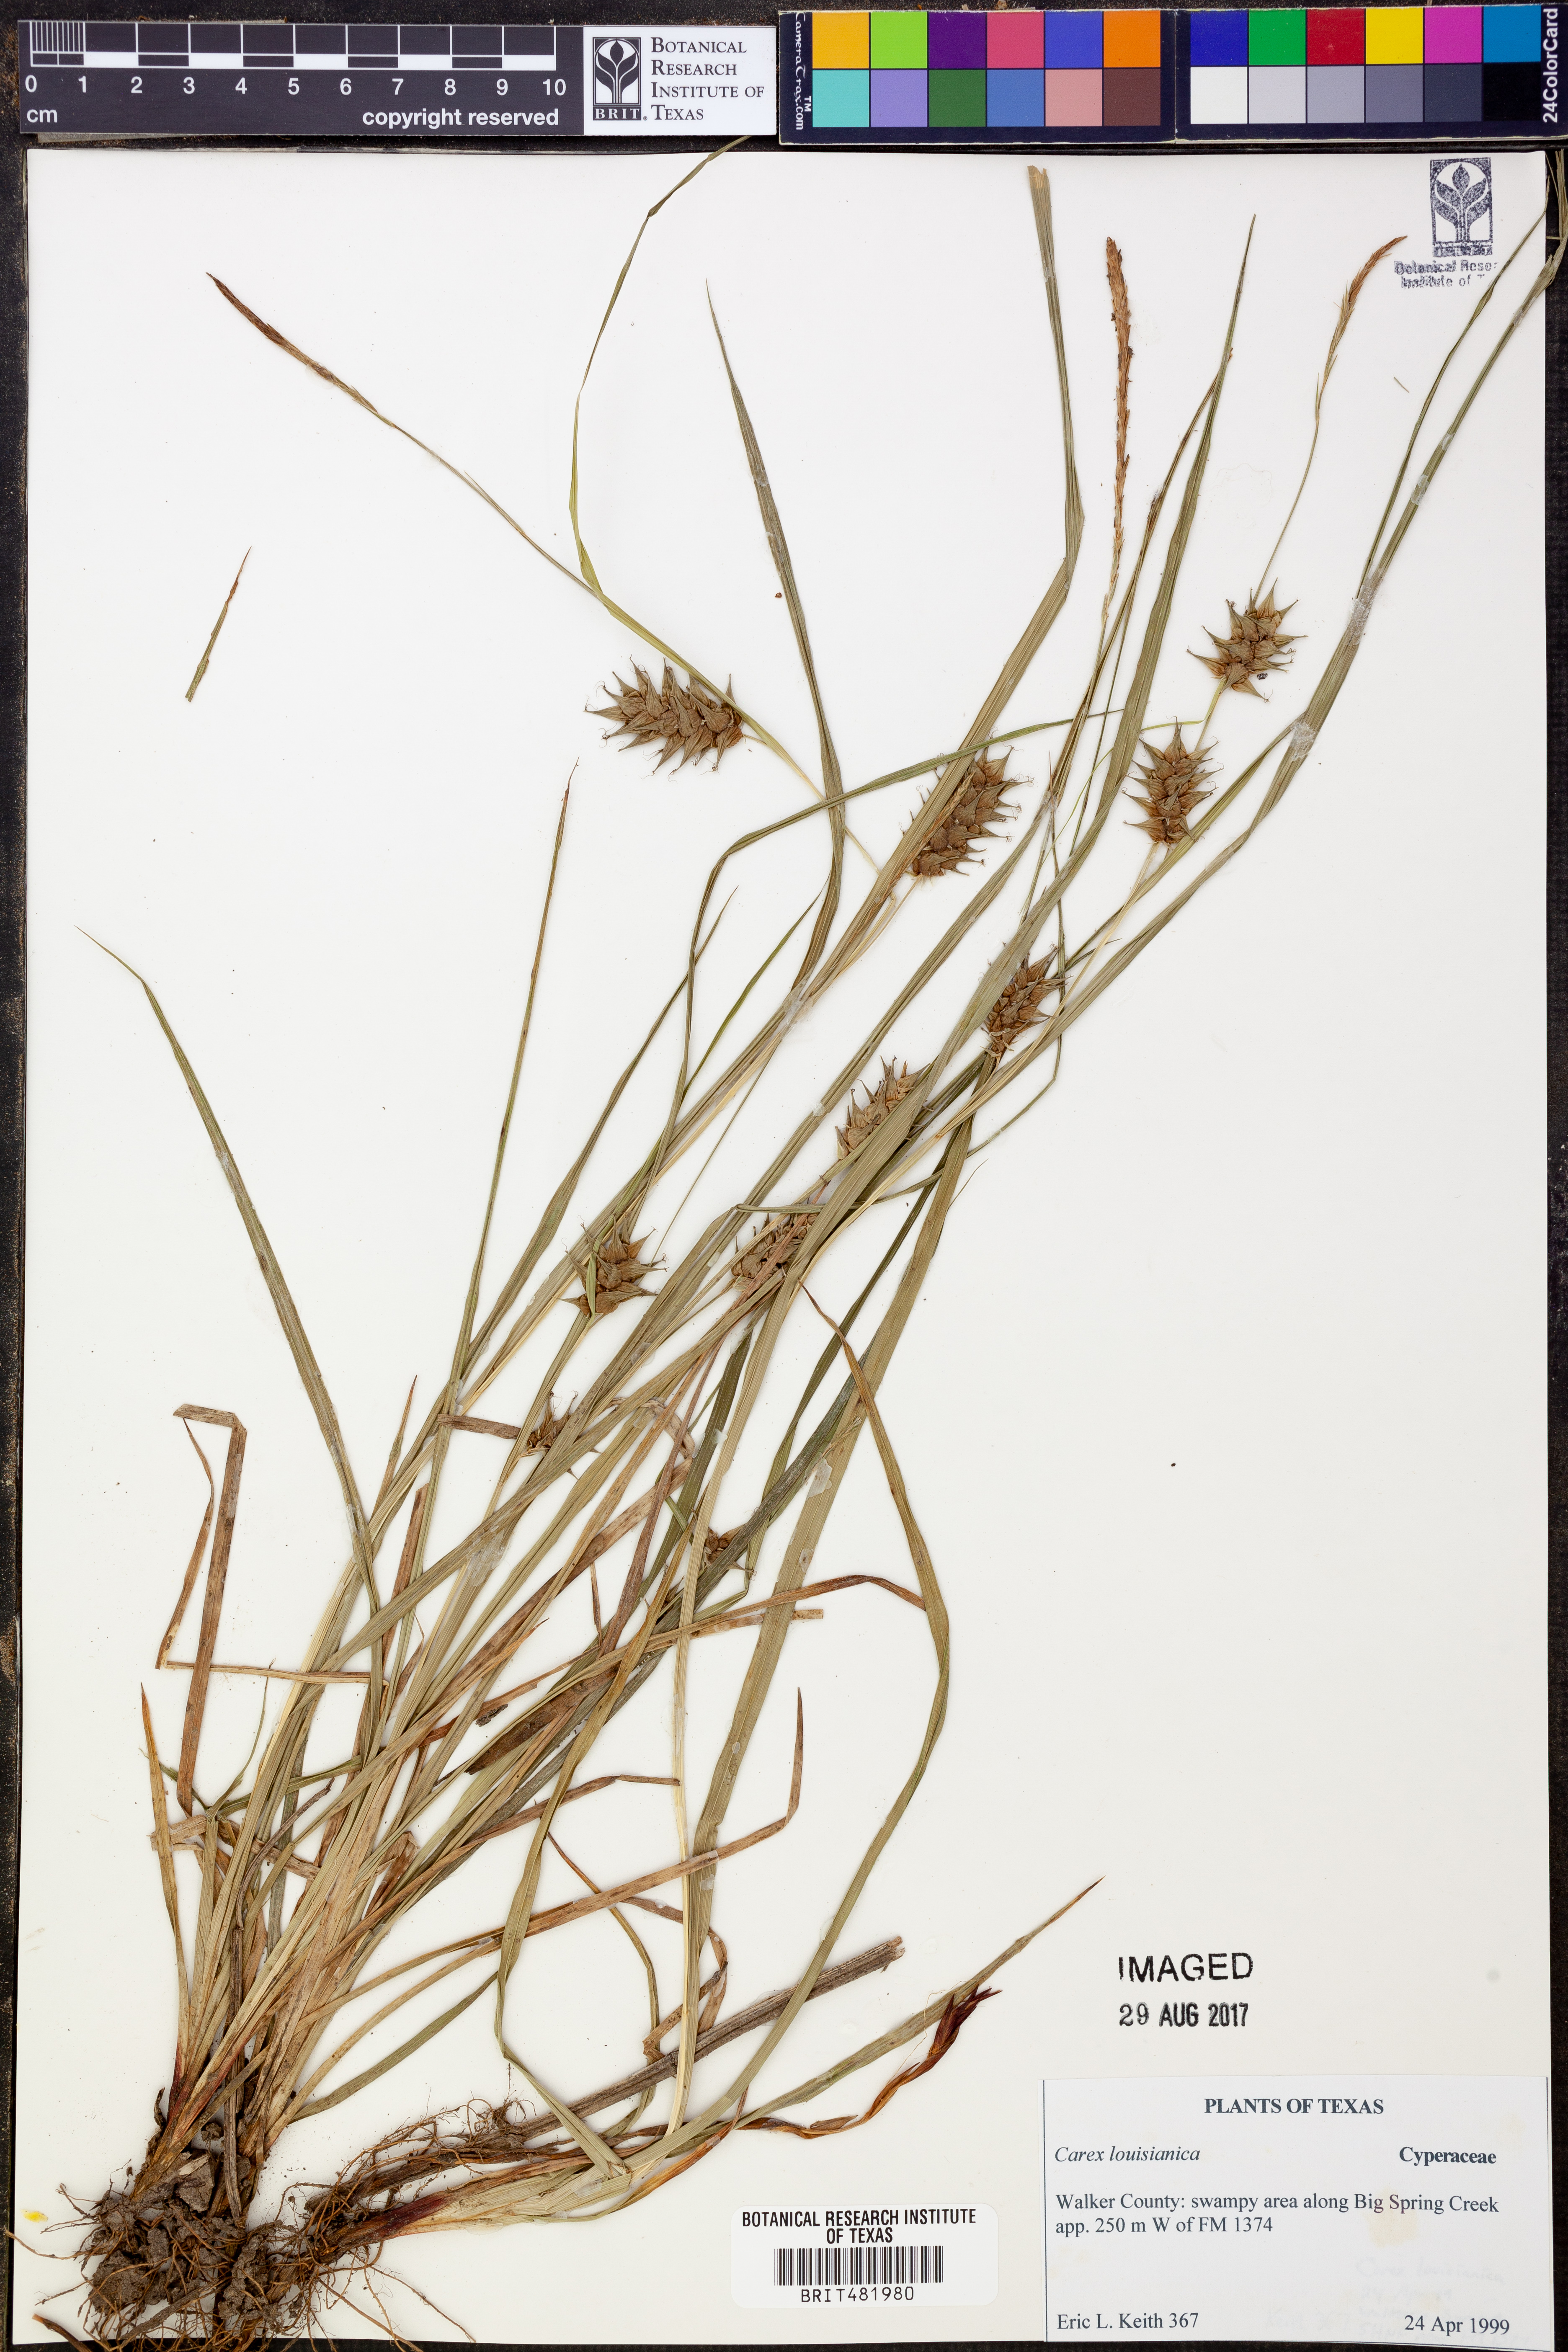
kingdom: Plantae
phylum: Tracheophyta
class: Liliopsida
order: Poales
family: Cyperaceae
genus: Carex
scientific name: Carex louisianica
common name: Louisiana sedge
